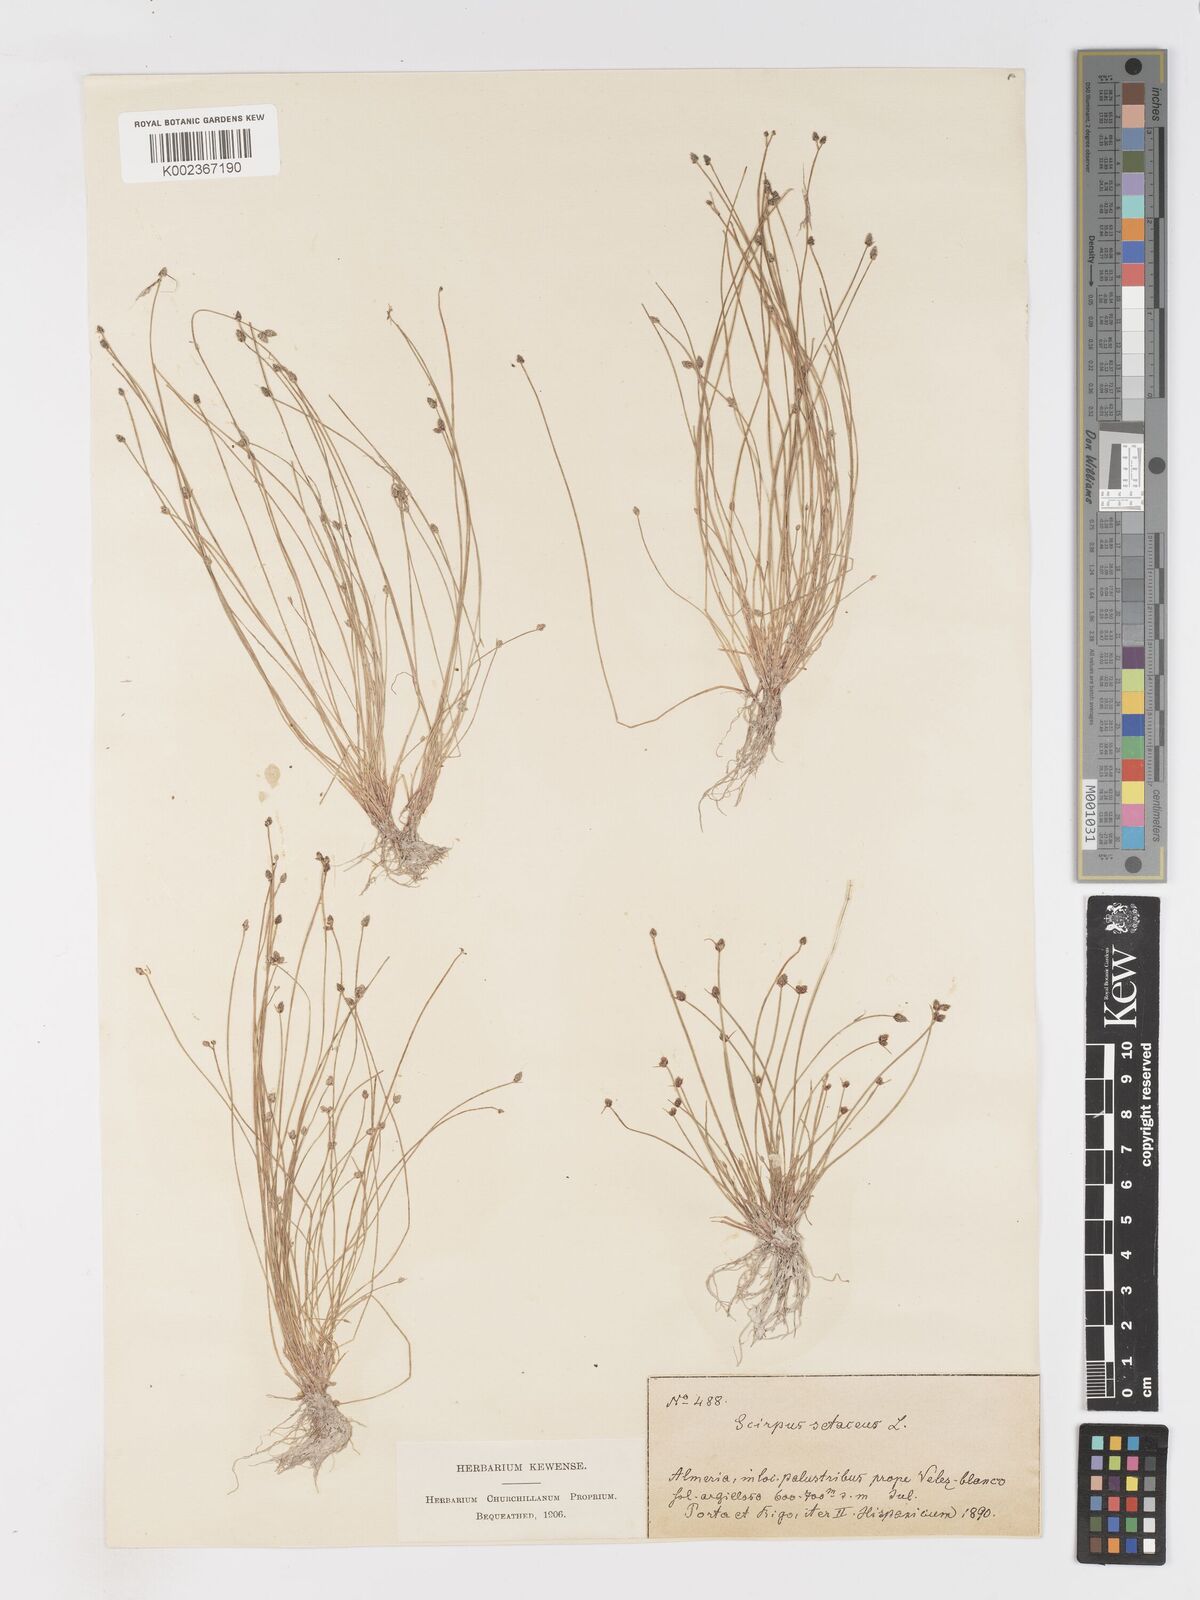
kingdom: Plantae
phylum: Tracheophyta
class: Liliopsida
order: Poales
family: Cyperaceae
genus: Isolepis
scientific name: Isolepis setacea
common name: Bristle club-rush
